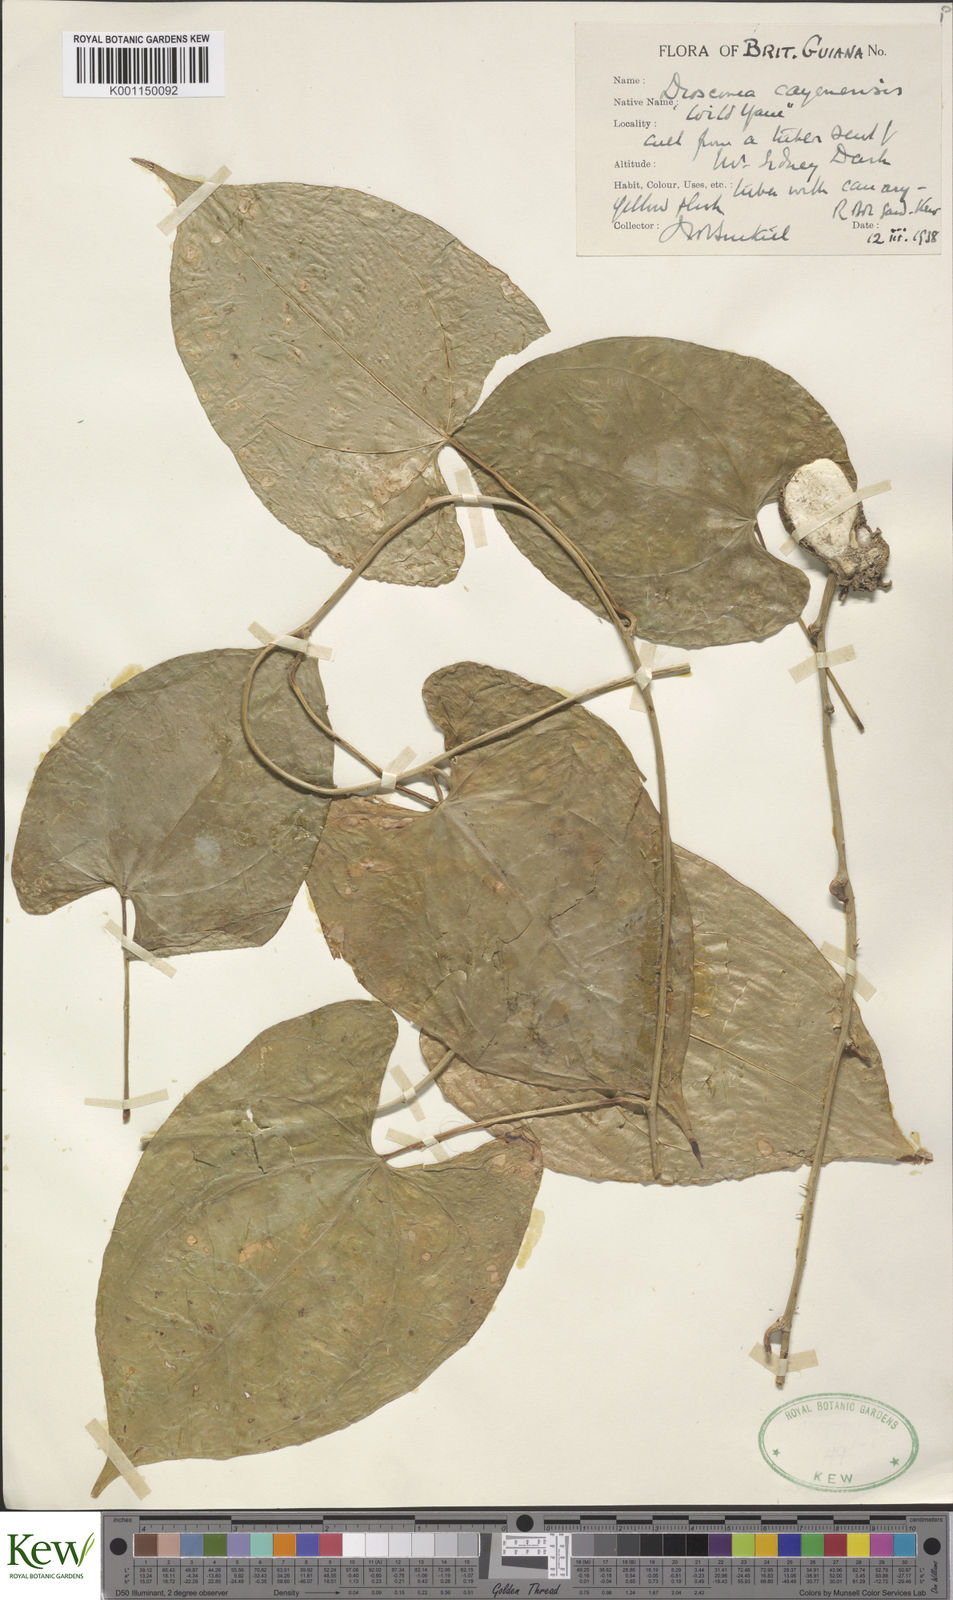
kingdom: Plantae
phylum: Tracheophyta
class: Liliopsida
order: Dioscoreales
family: Dioscoreaceae
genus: Dioscorea
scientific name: Dioscorea cayenensis
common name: Attoto yam
